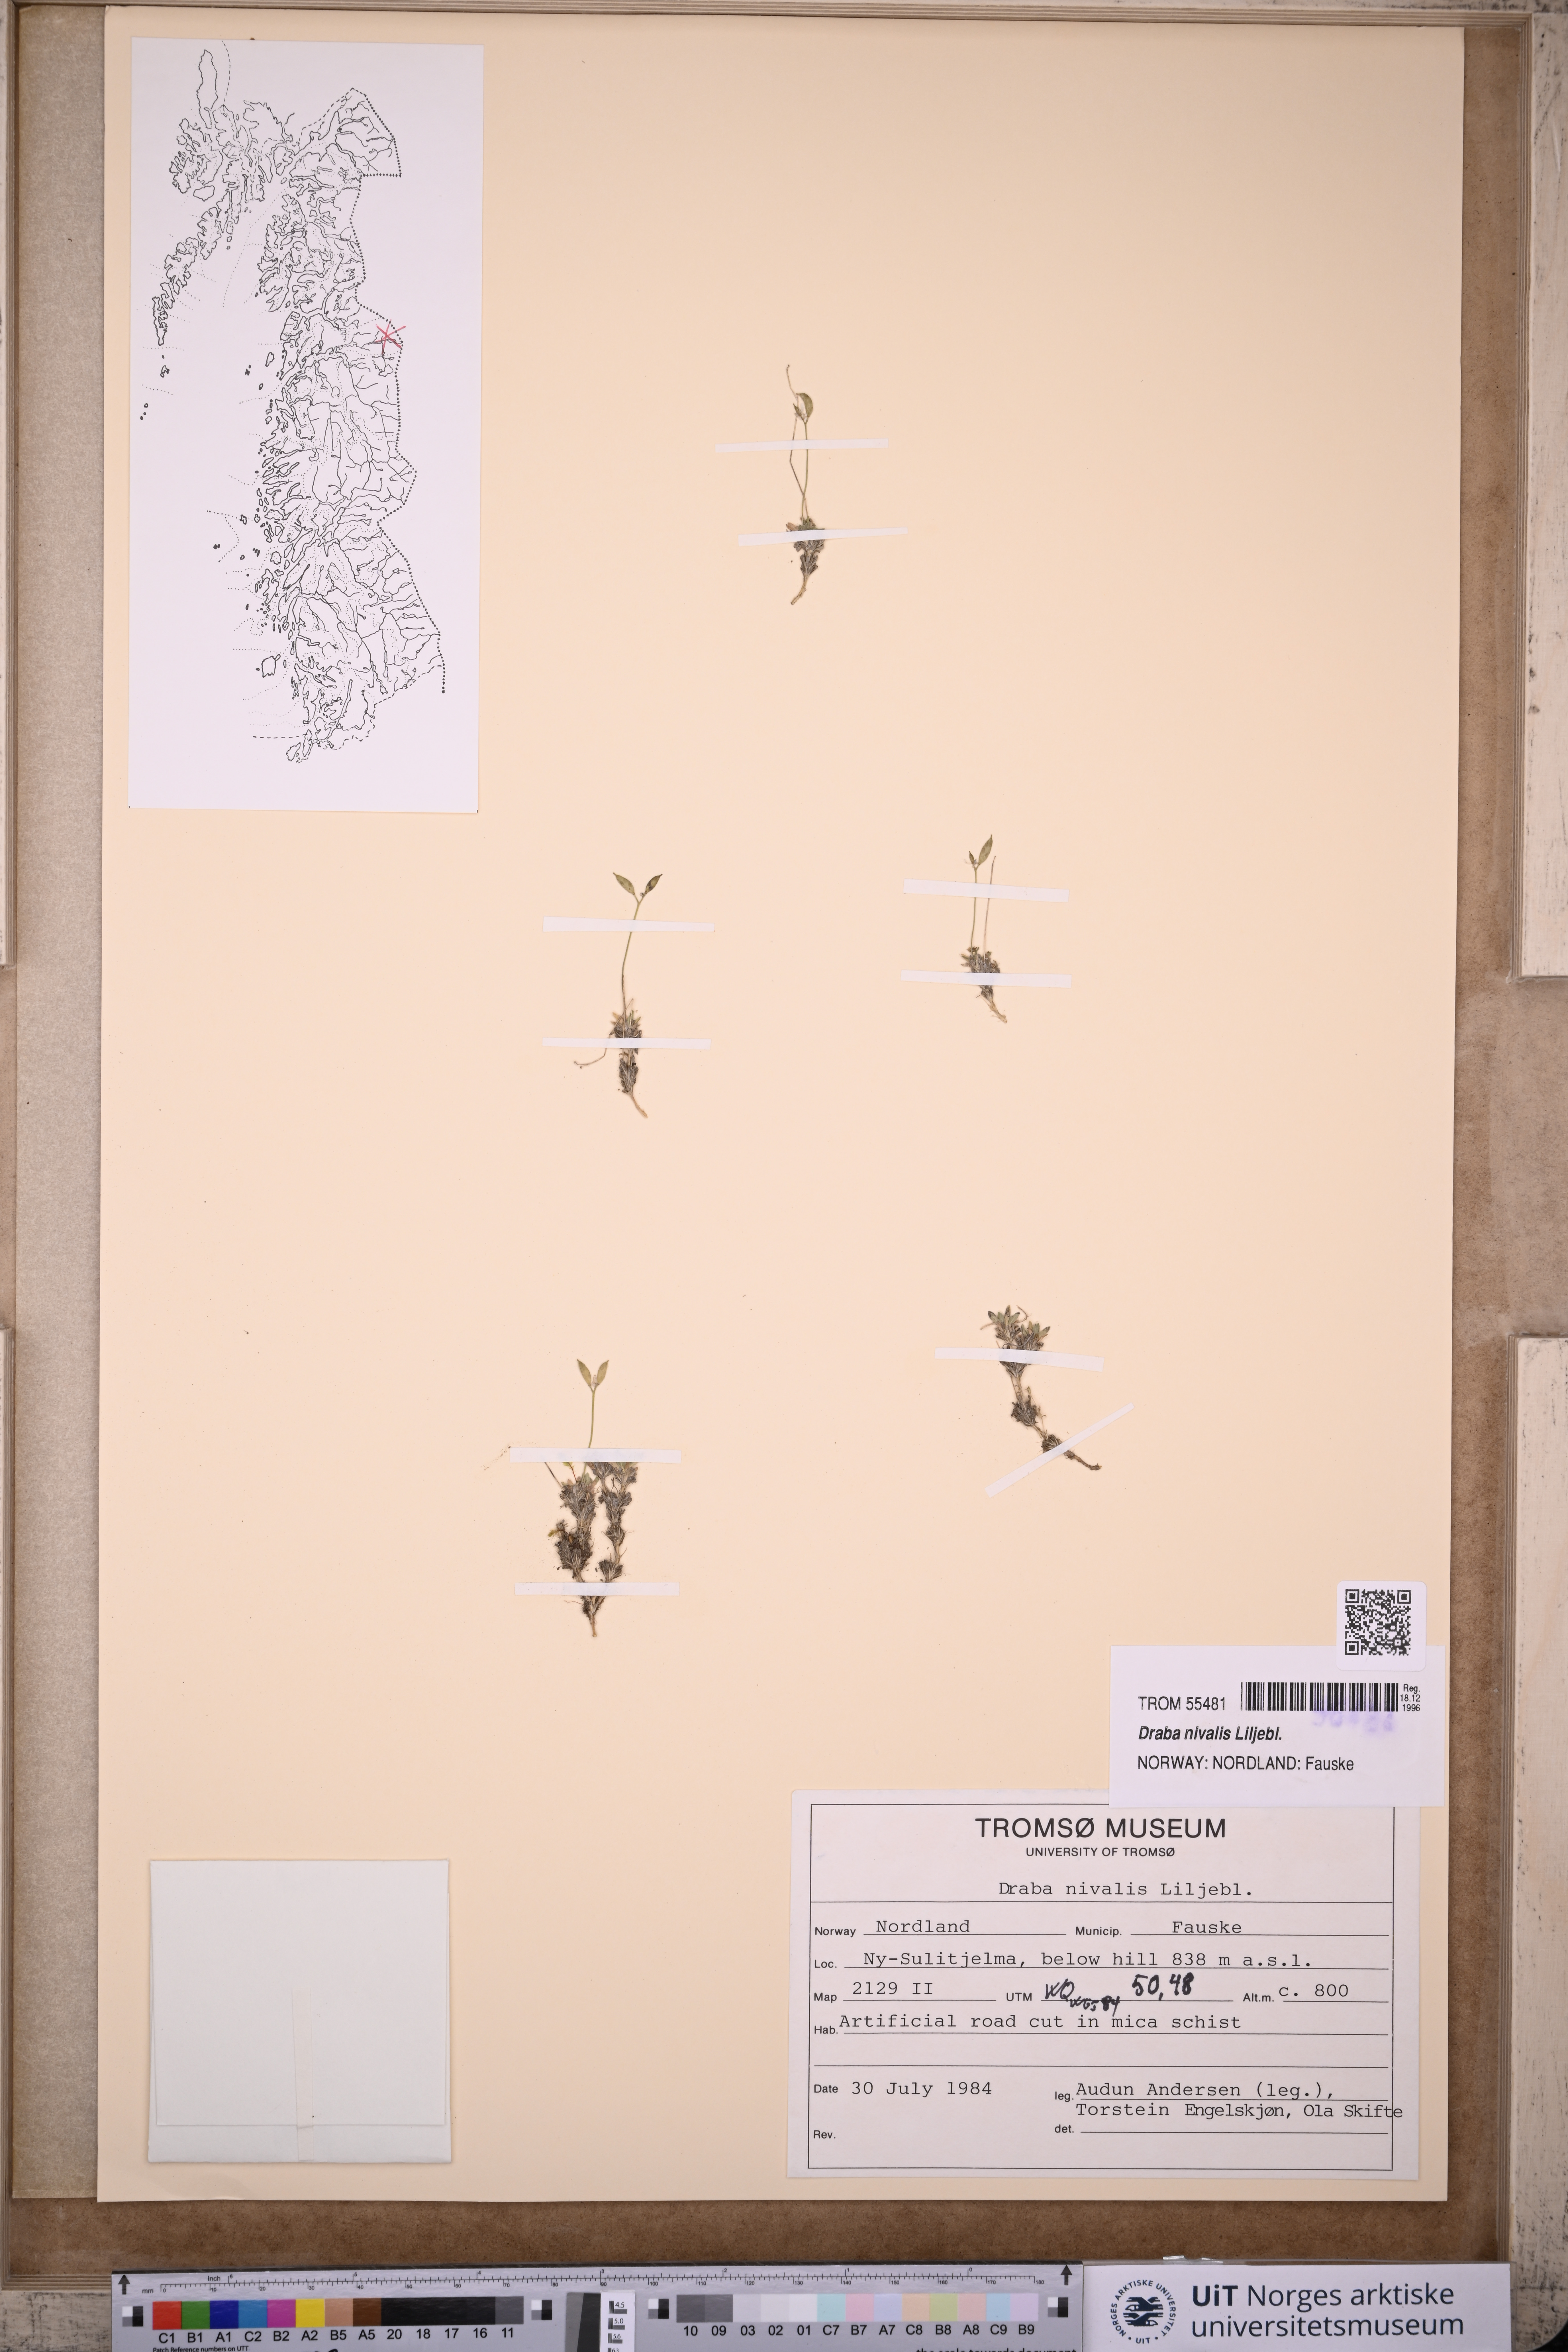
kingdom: Plantae
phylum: Tracheophyta
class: Magnoliopsida
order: Brassicales
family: Brassicaceae
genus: Draba
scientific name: Draba nivalis
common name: Snow draba
